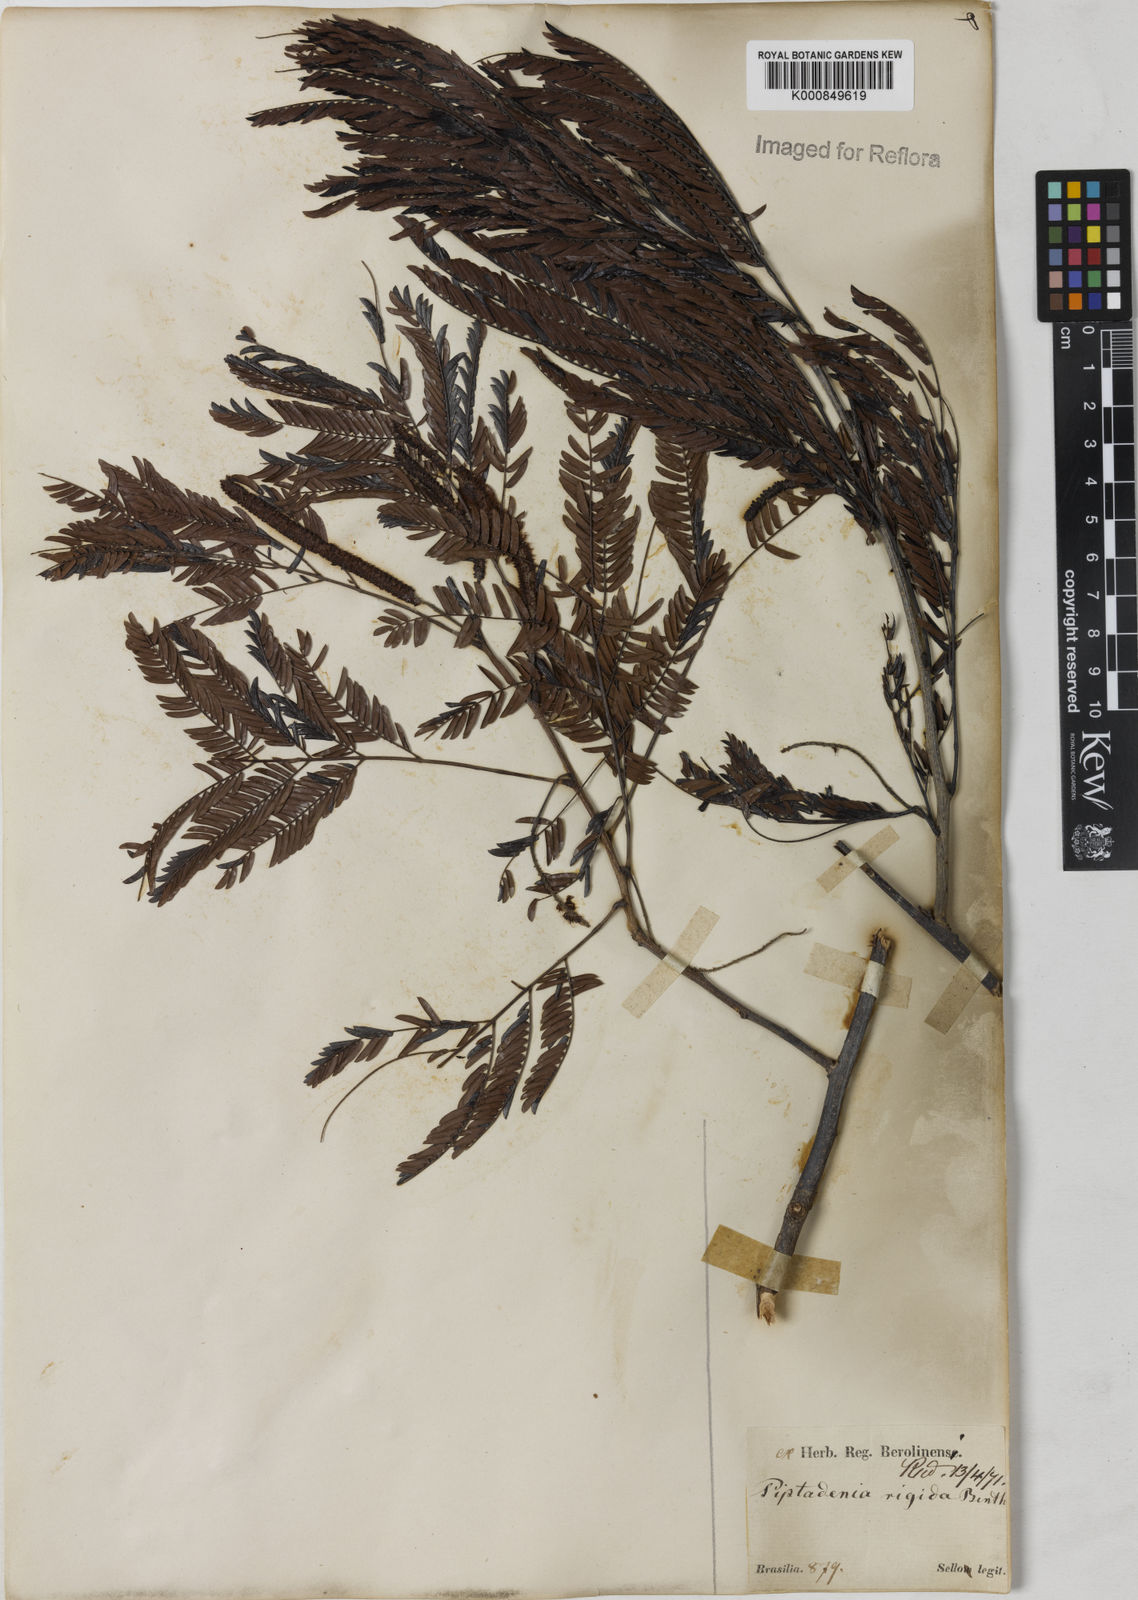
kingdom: Plantae
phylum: Tracheophyta
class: Magnoliopsida
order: Fabales
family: Fabaceae
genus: Parapiptadenia
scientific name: Parapiptadenia rigida
